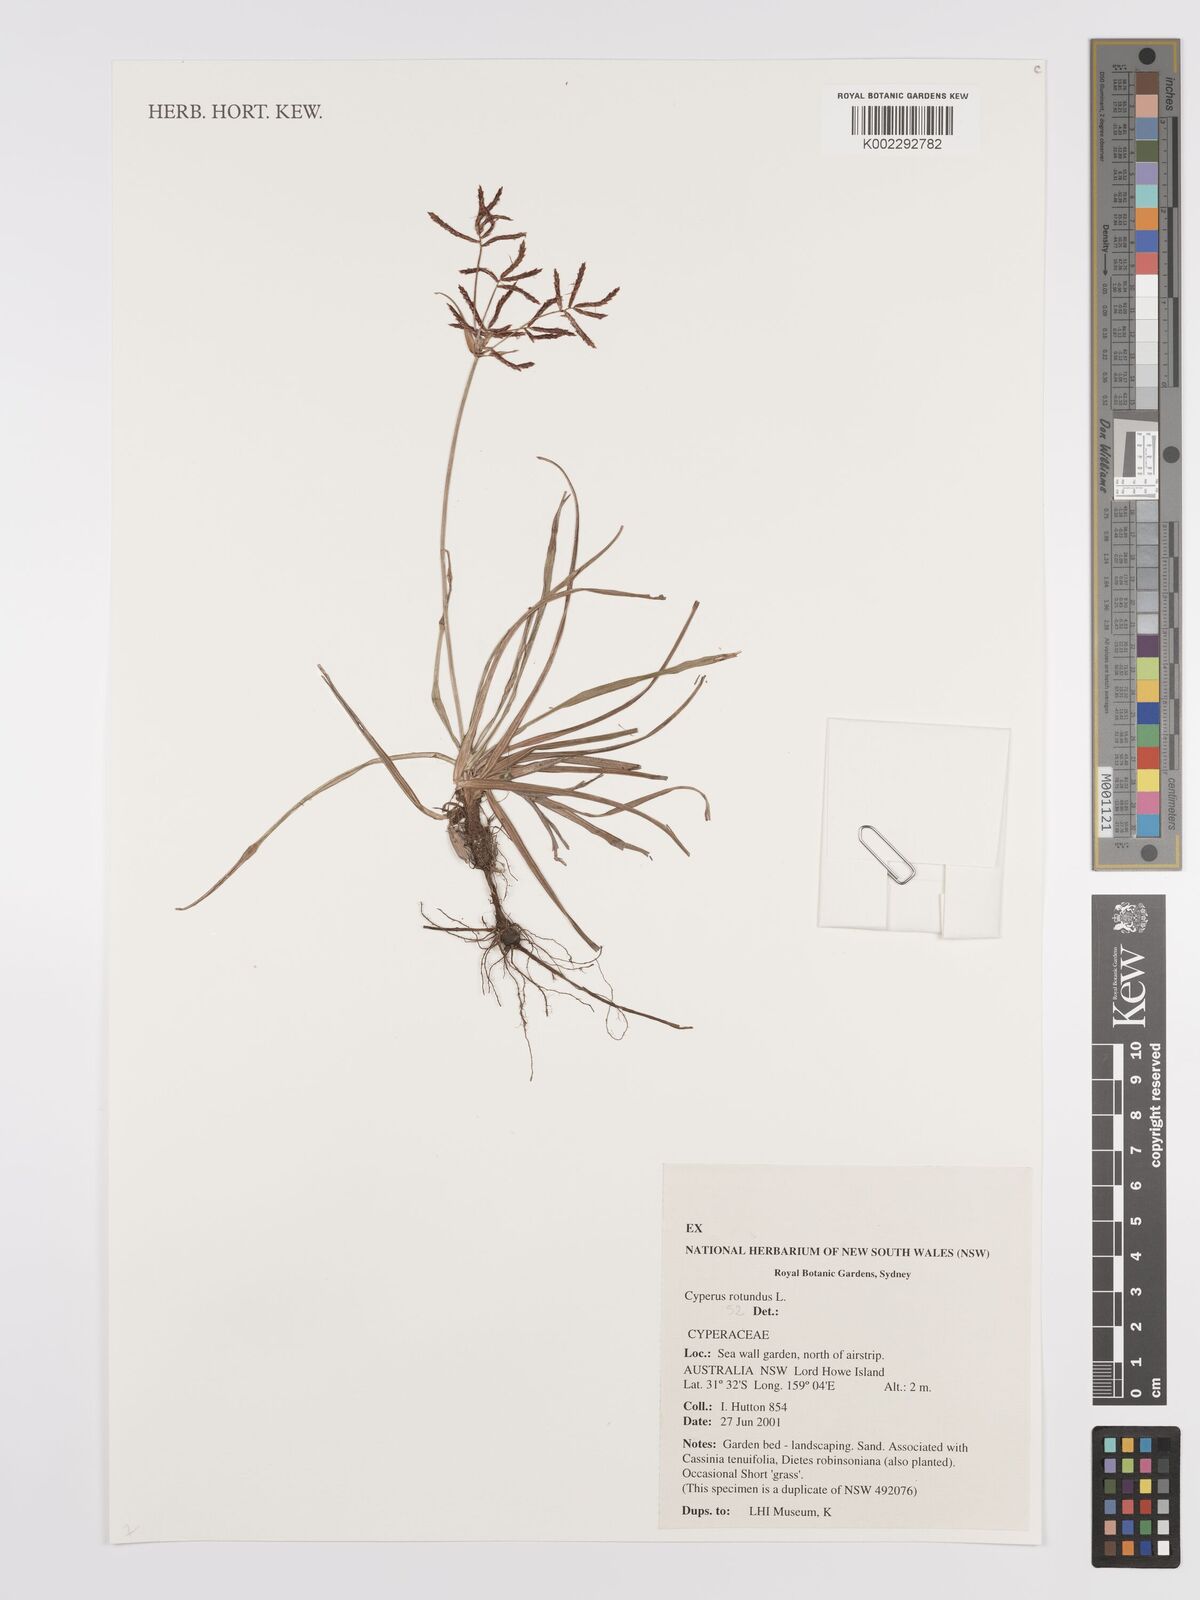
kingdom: Plantae
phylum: Tracheophyta
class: Liliopsida
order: Poales
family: Cyperaceae
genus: Cyperus
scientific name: Cyperus rotundus
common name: Nutgrass
